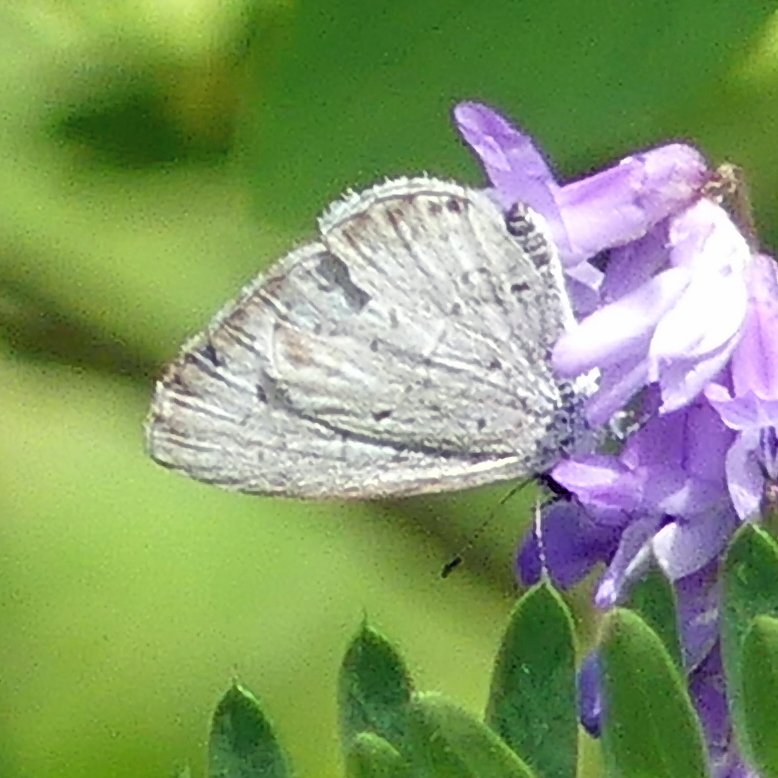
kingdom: Animalia
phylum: Arthropoda
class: Insecta
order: Lepidoptera
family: Lycaenidae
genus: Celastrina
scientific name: Celastrina
